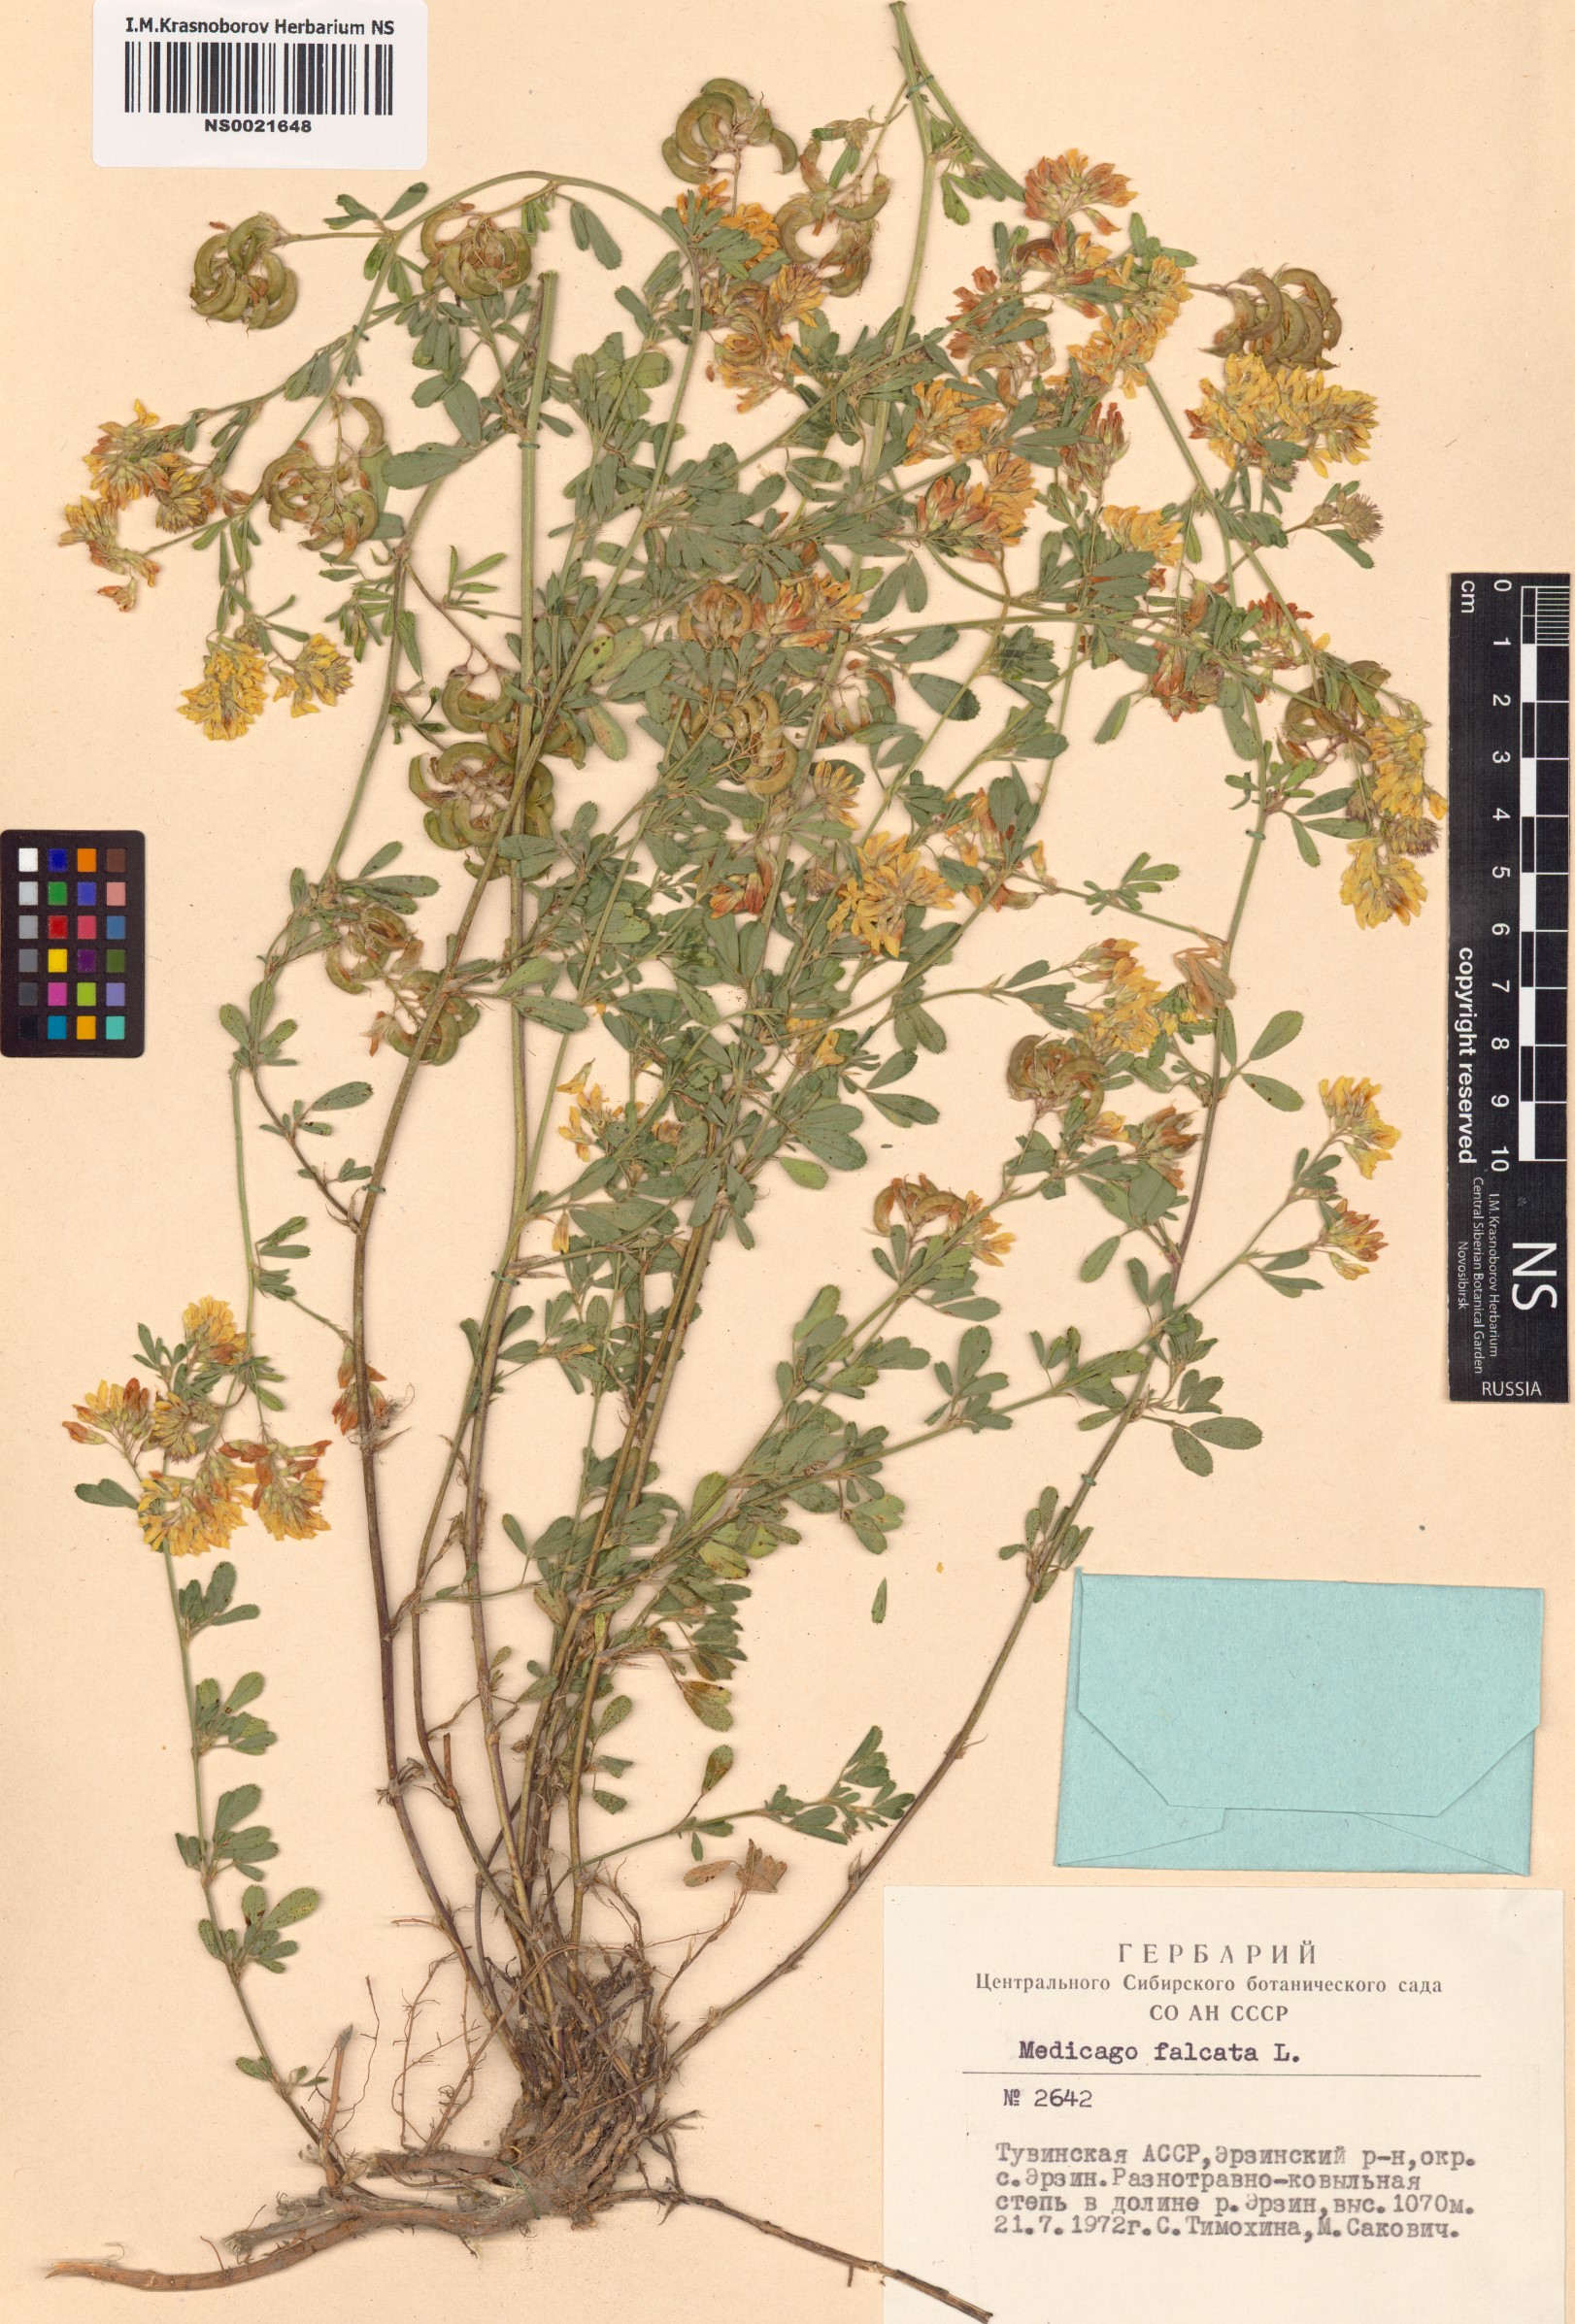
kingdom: Plantae
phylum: Tracheophyta
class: Magnoliopsida
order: Fabales
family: Fabaceae
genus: Medicago
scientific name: Medicago falcata
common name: Sickle medick
